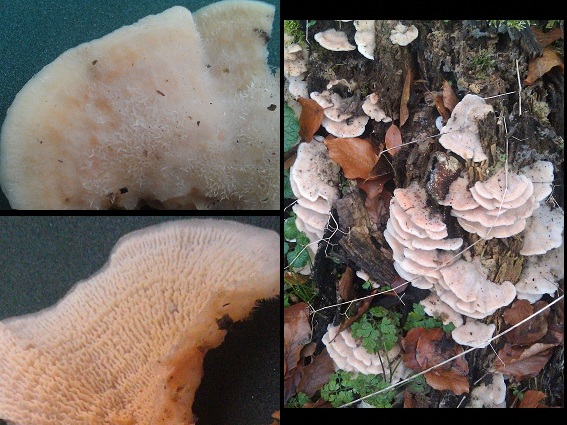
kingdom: Fungi
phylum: Basidiomycota
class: Agaricomycetes
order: Polyporales
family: Meruliaceae
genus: Phlebia
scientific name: Phlebia tremellosa
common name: bævrende åresvamp
